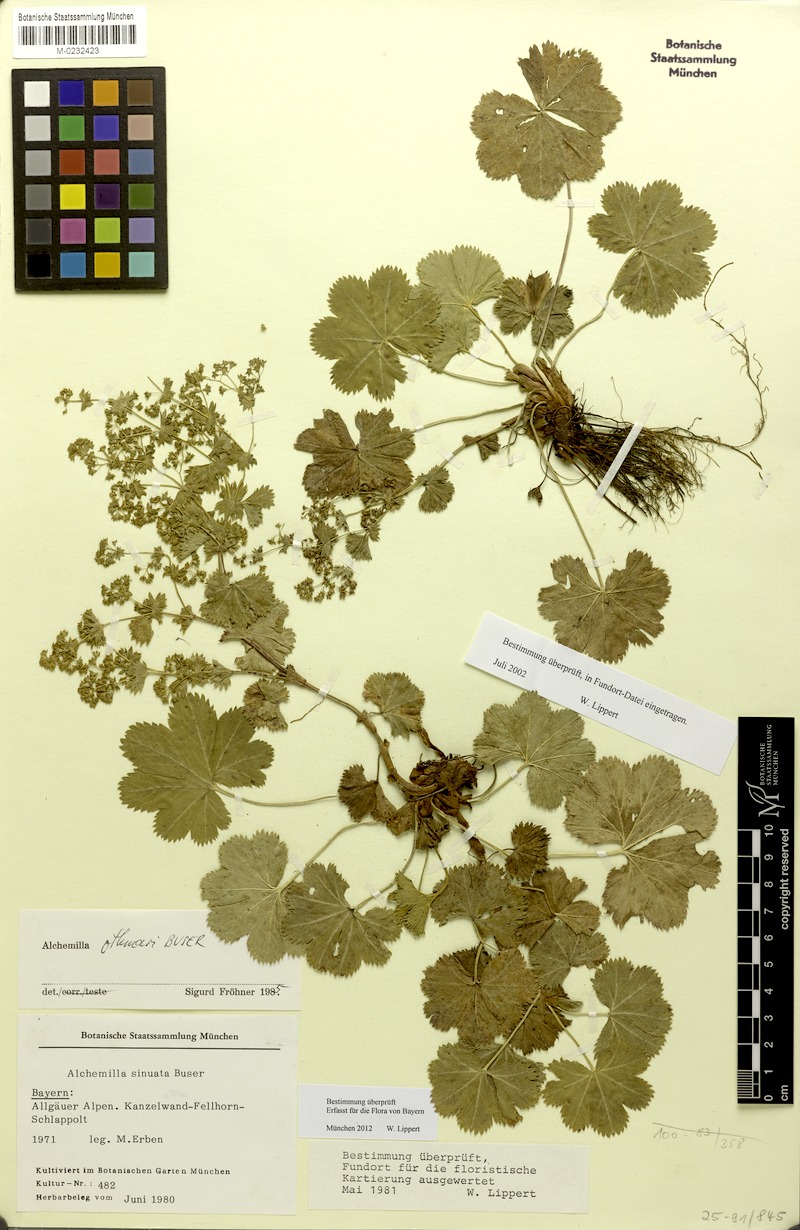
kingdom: Plantae
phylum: Tracheophyta
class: Magnoliopsida
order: Rosales
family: Rosaceae
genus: Alchemilla
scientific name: Alchemilla othmarii
